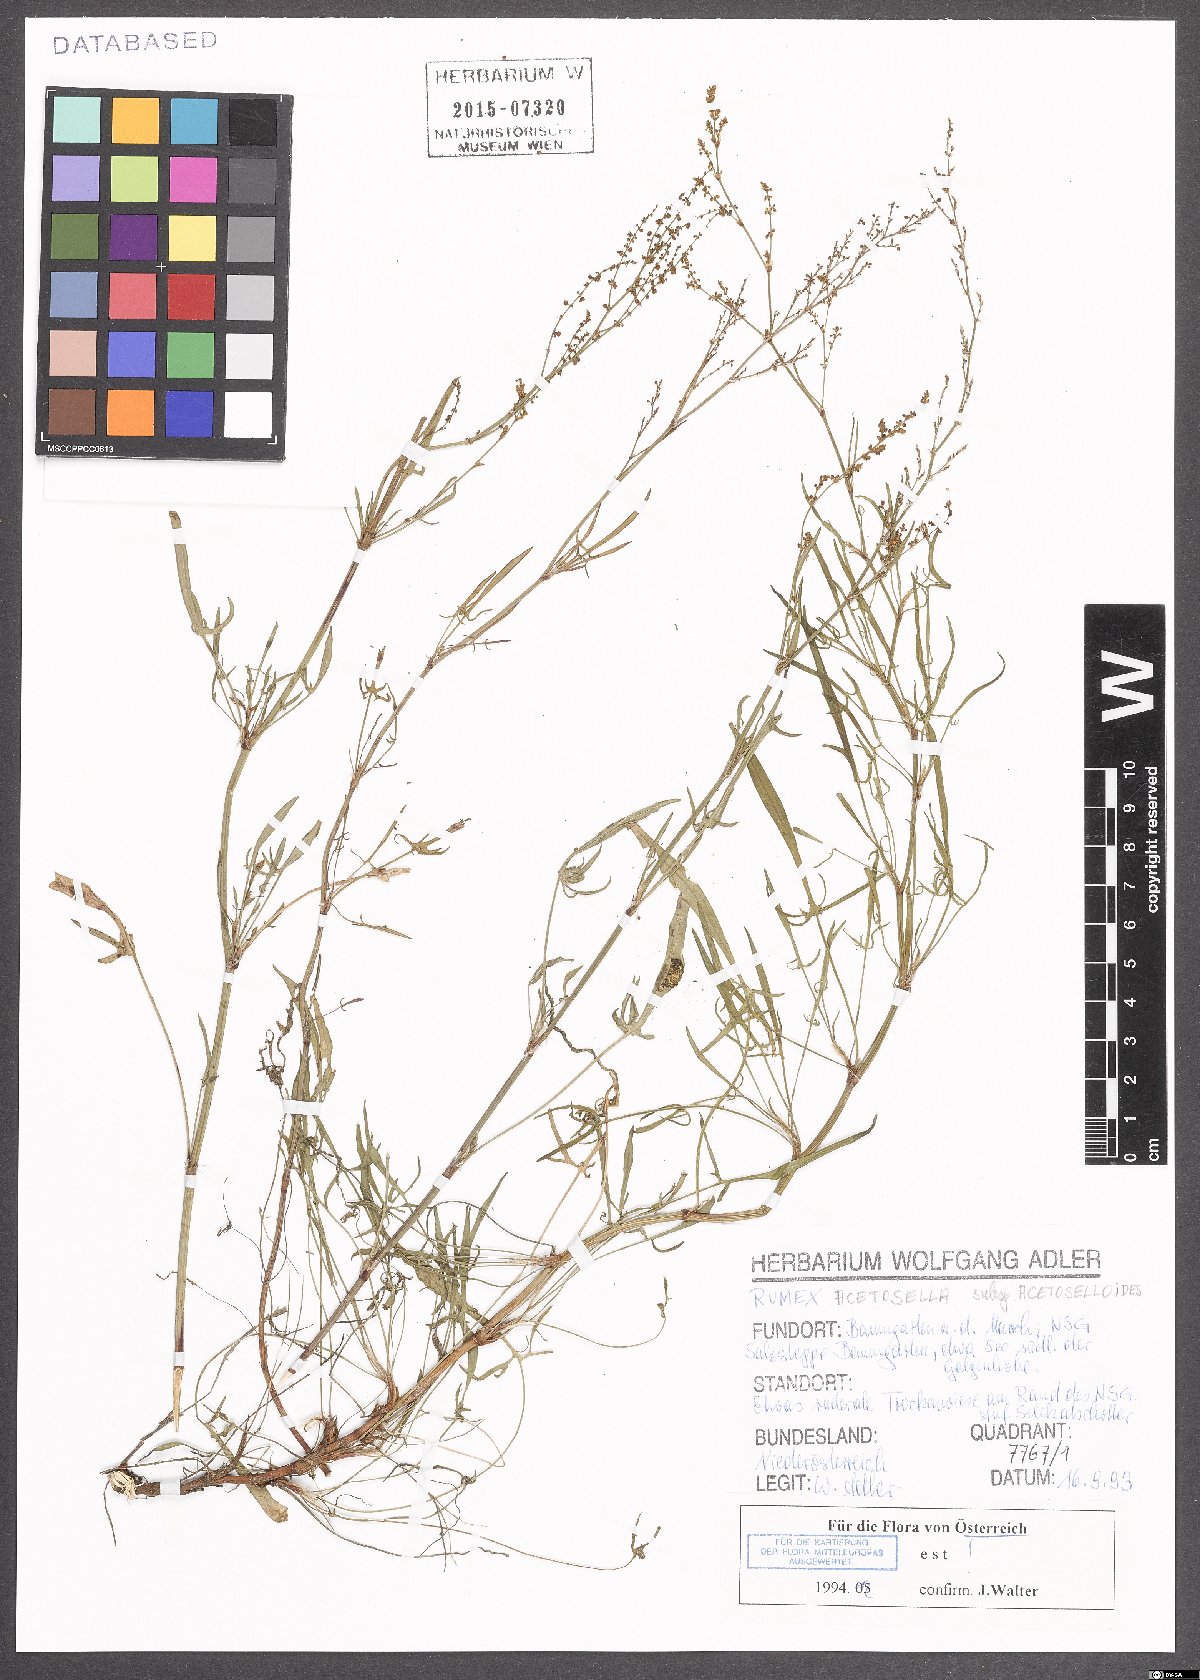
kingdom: Plantae
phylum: Tracheophyta
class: Magnoliopsida
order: Caryophyllales
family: Polygonaceae
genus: Rumex
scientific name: Rumex acetosella
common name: Common sheep sorrel
